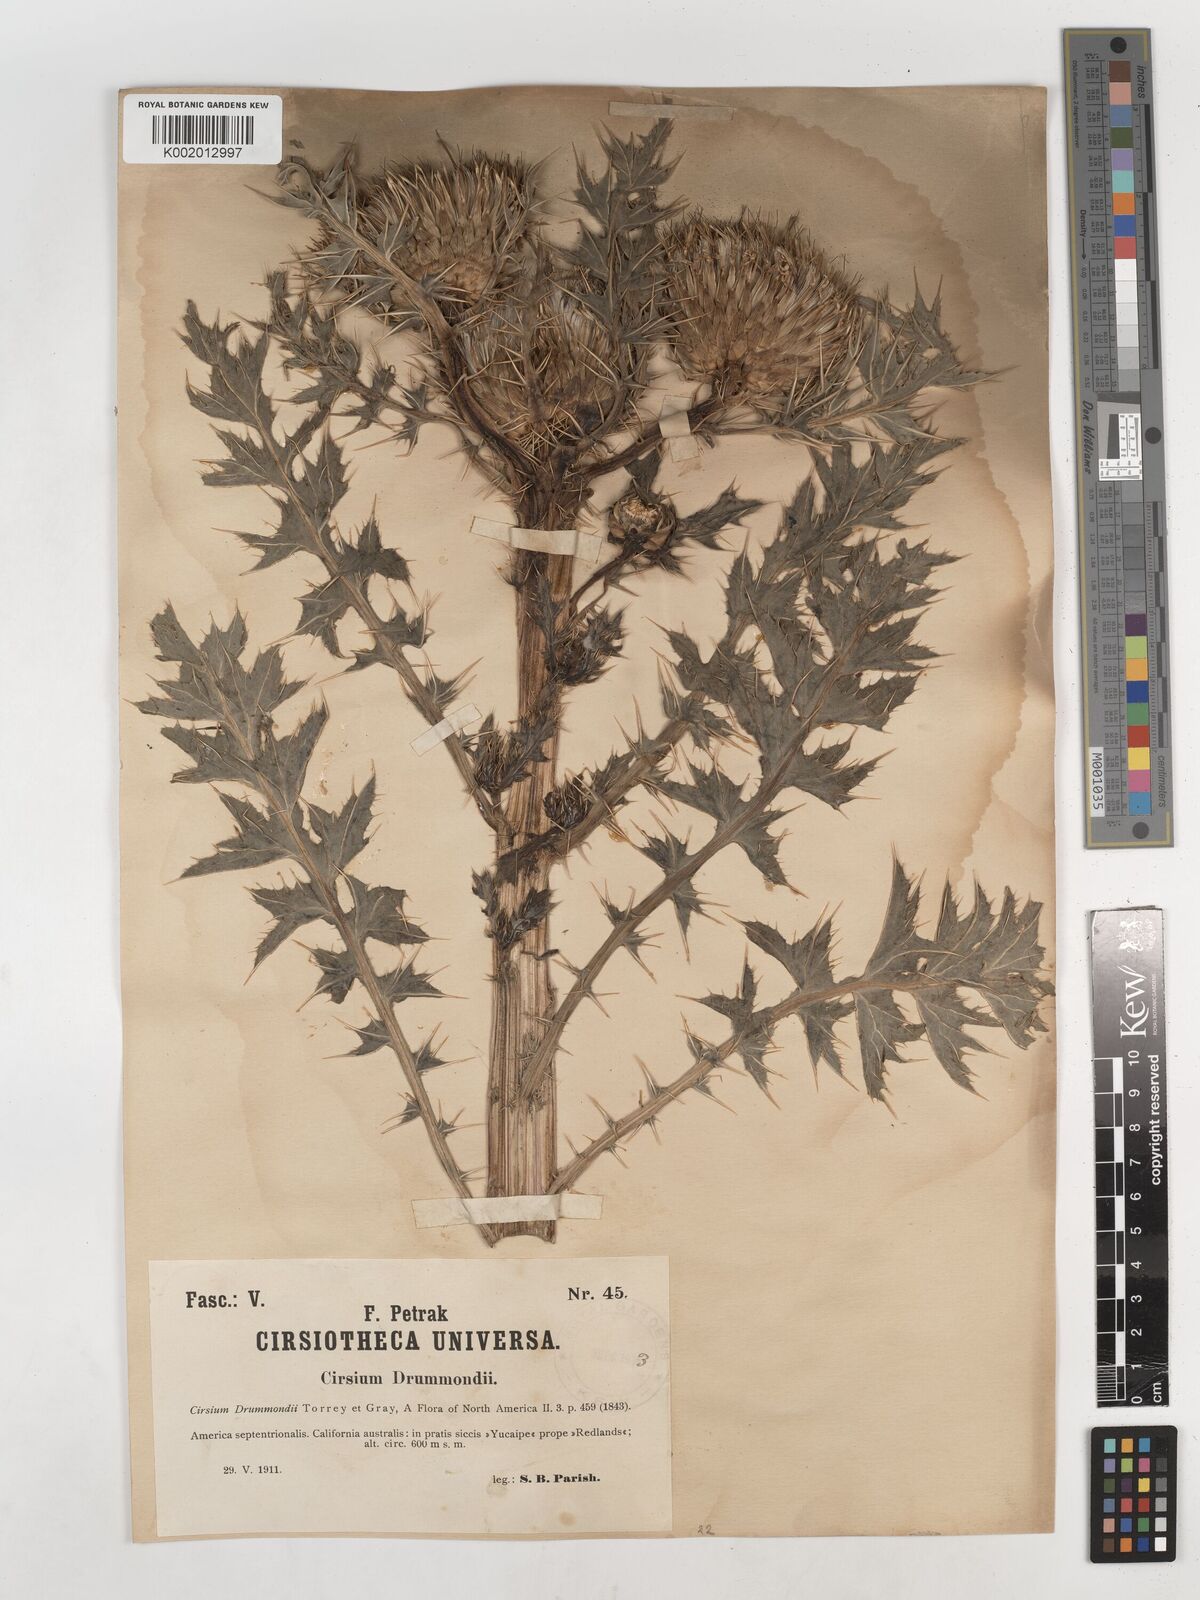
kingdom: Plantae
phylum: Tracheophyta
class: Magnoliopsida
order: Asterales
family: Asteraceae
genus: Cirsium
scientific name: Cirsium drummondii
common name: Drummond's thistle
